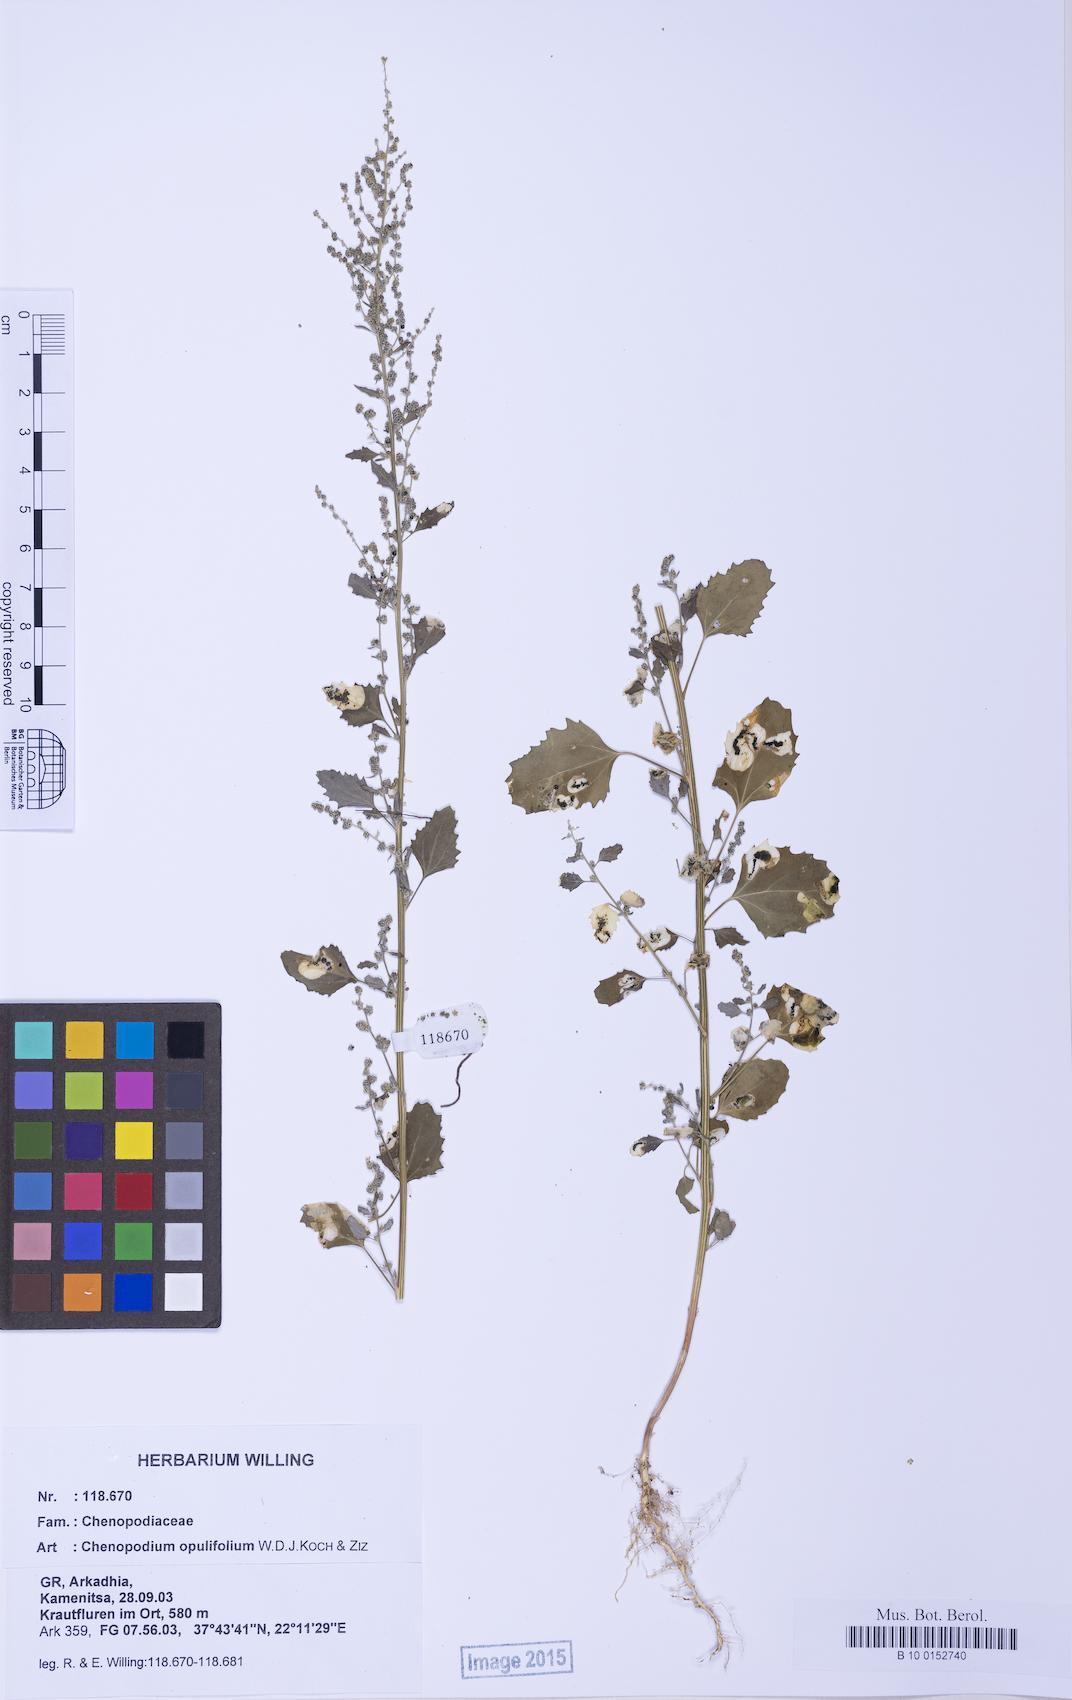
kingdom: Plantae
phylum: Tracheophyta
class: Magnoliopsida
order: Caryophyllales
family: Amaranthaceae
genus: Chenopodium
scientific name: Chenopodium album
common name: Fat-hen
